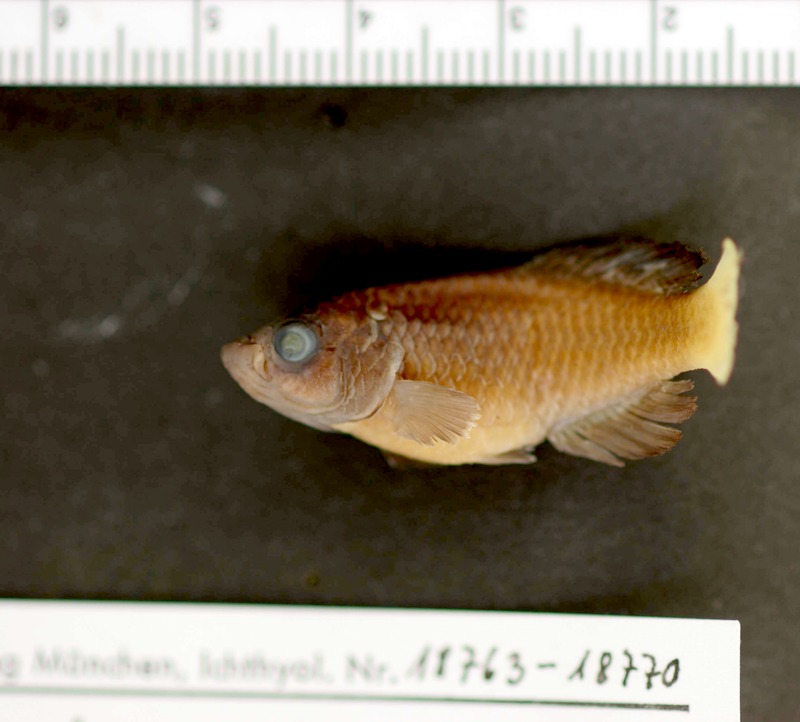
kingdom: Animalia
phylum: Chordata
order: Cyprinodontiformes
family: Nothobranchiidae
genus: Nothobranchius
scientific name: Nothobranchius foerschi
